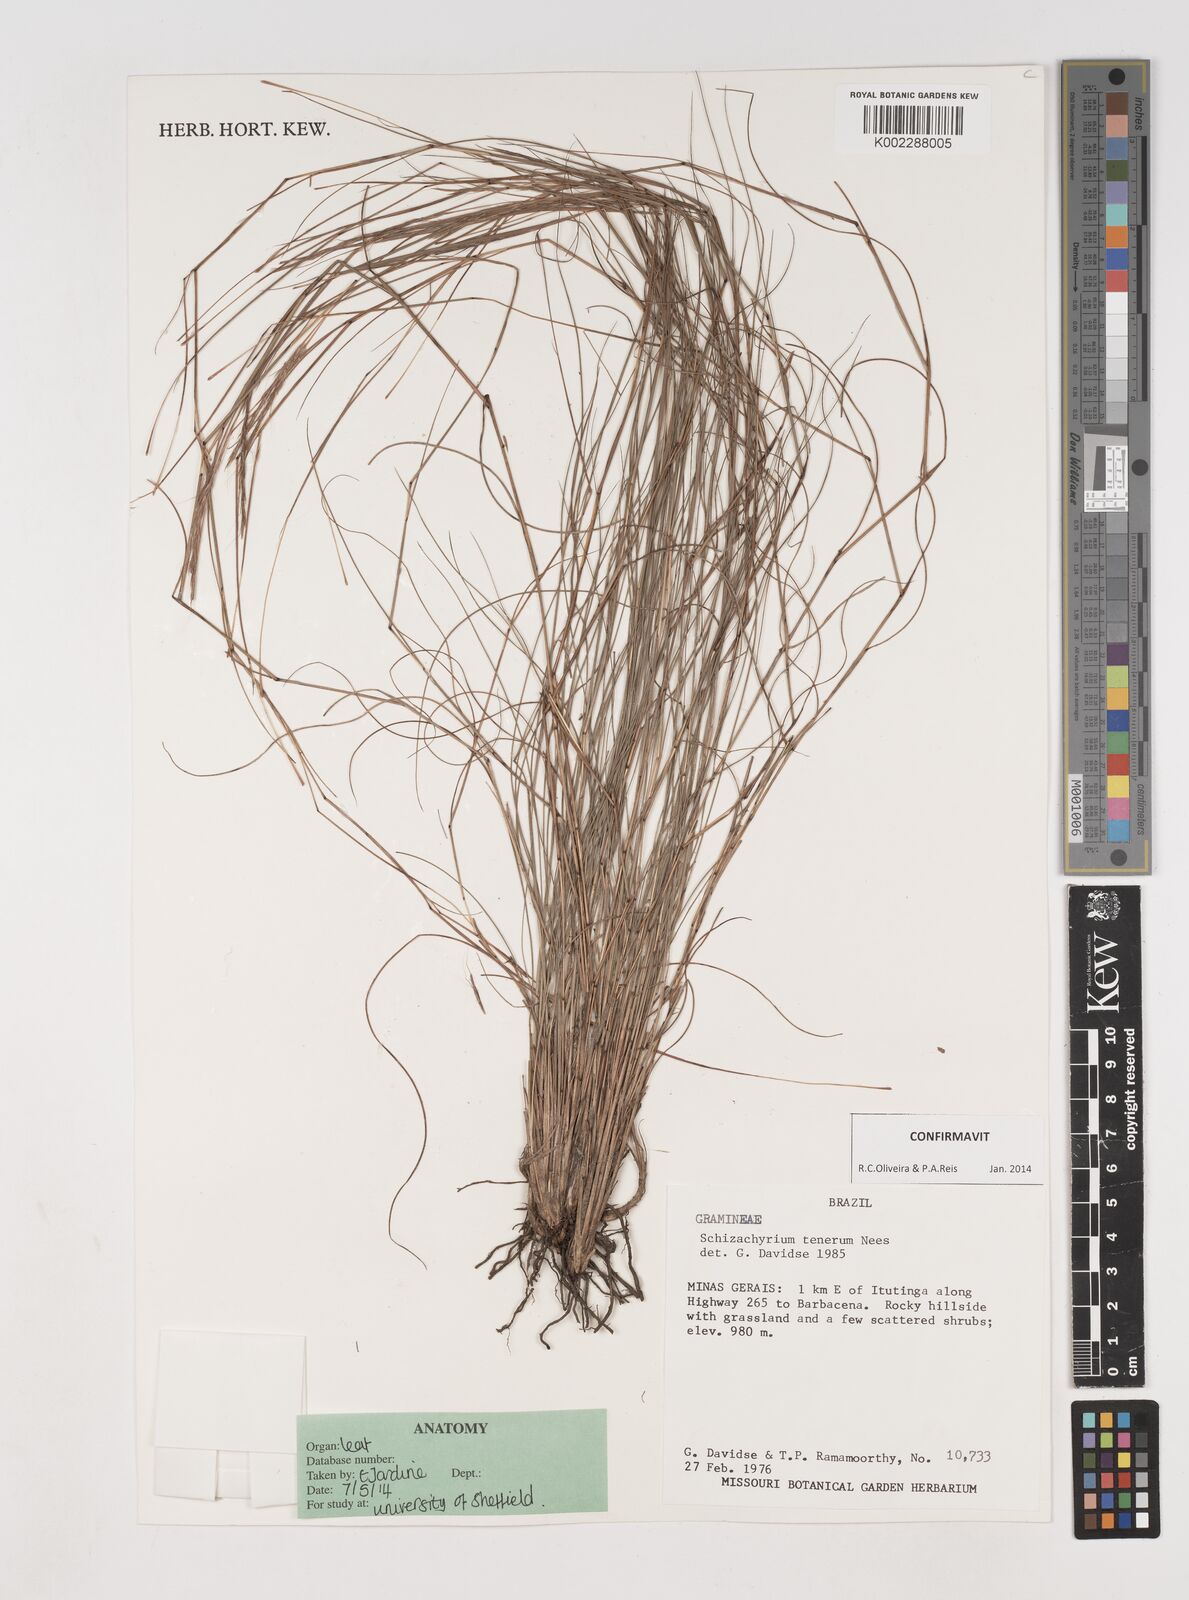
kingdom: Plantae
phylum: Tracheophyta
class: Liliopsida
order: Poales
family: Poaceae
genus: Andropogon
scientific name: Andropogon tener
